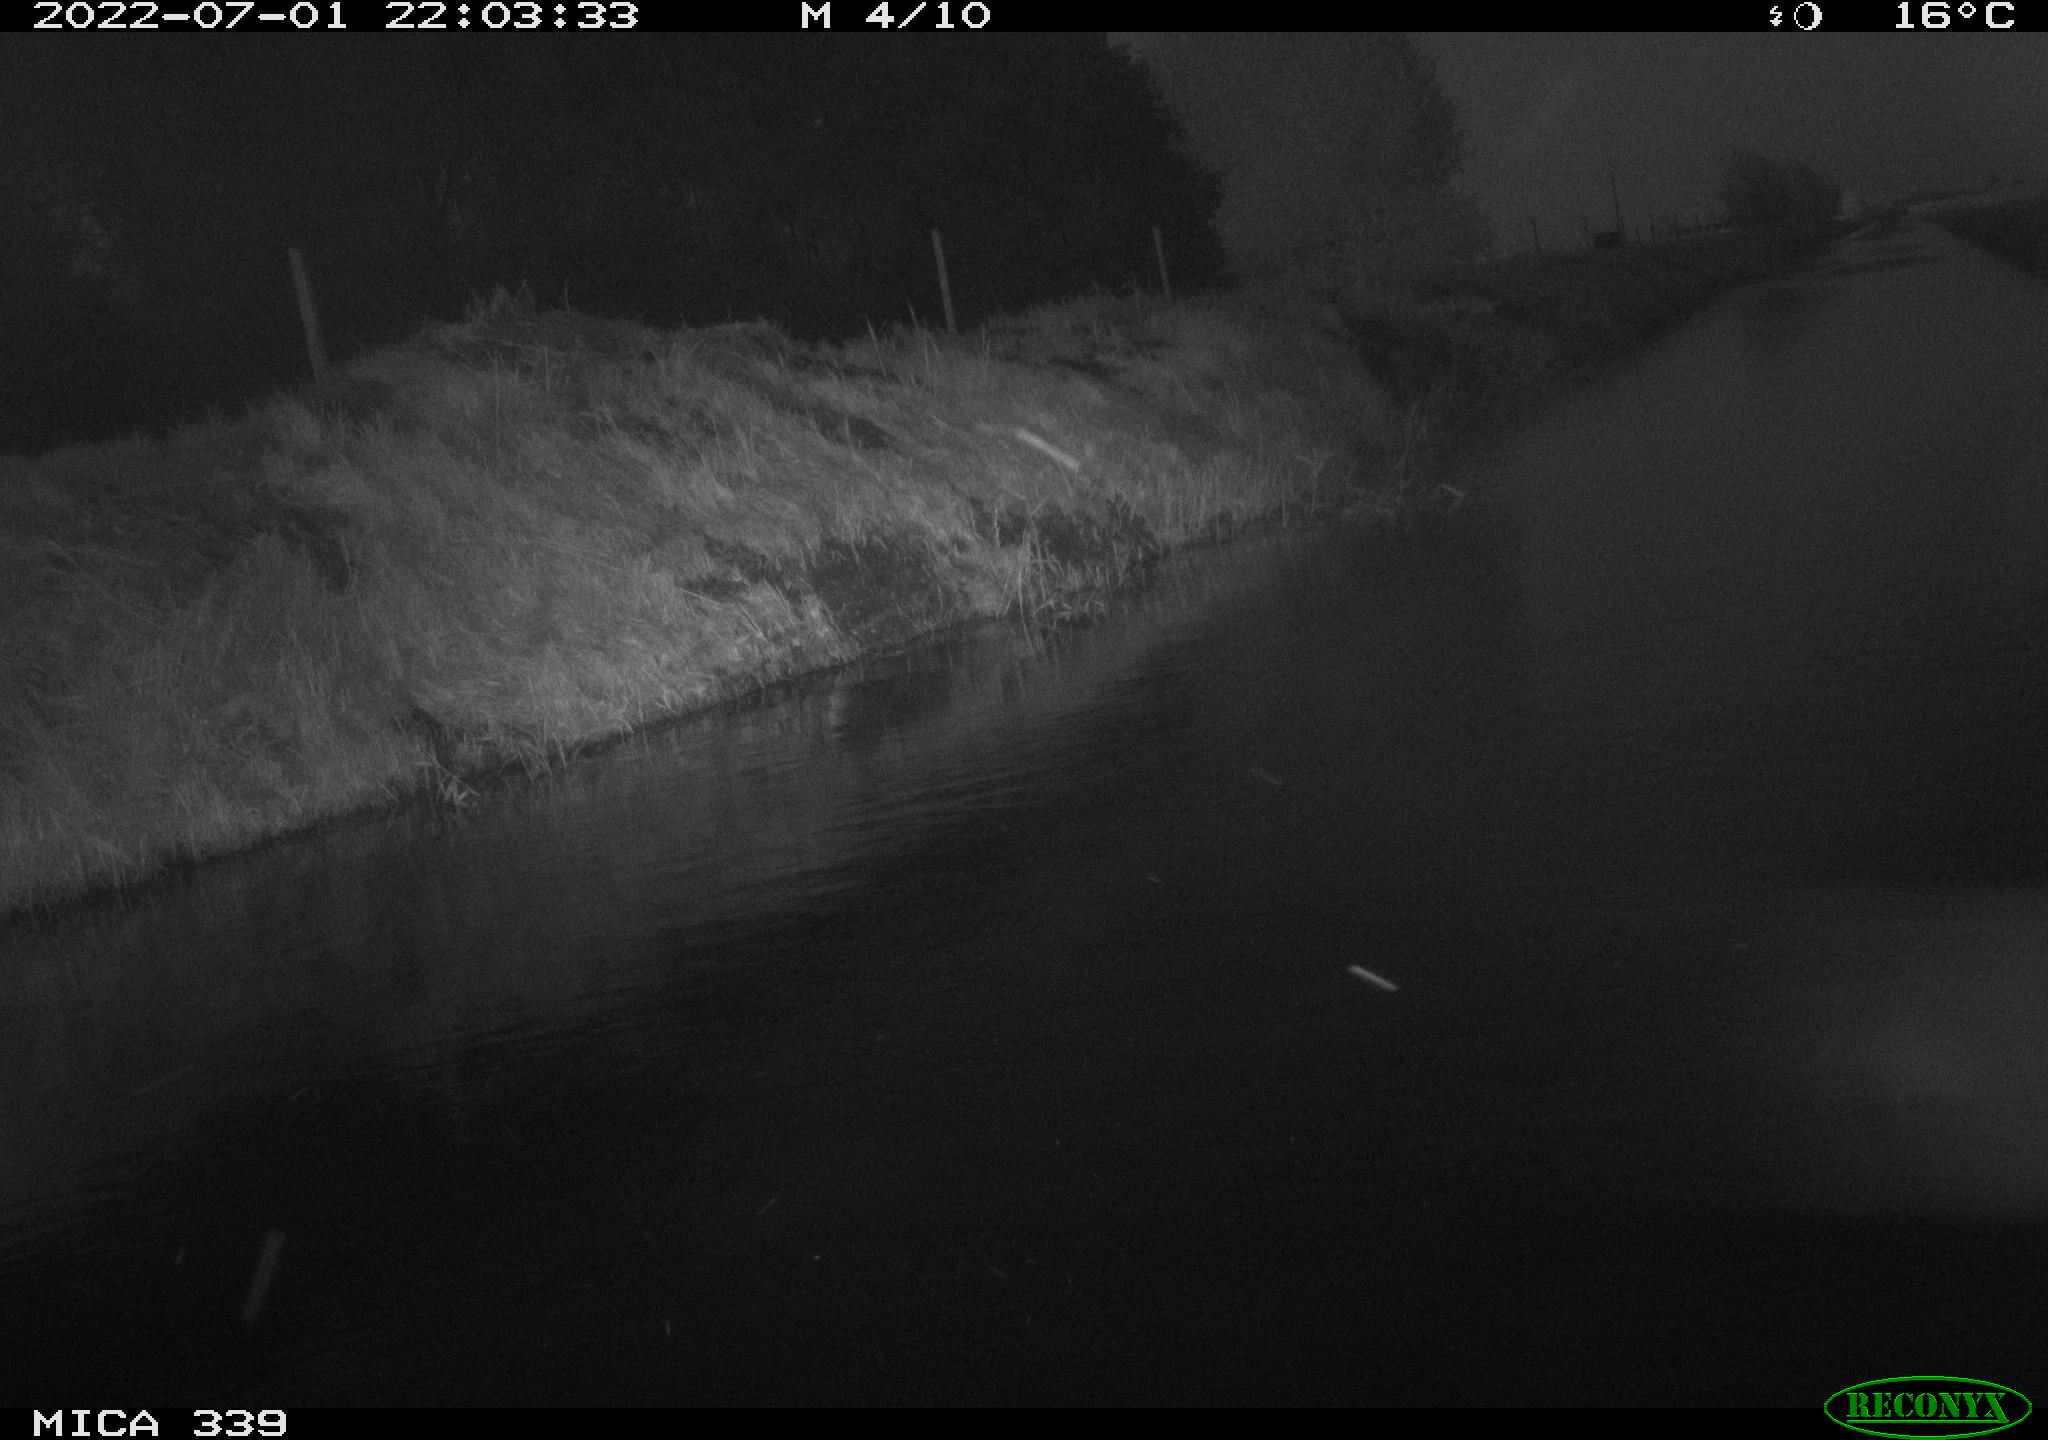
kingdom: Animalia
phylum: Chordata
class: Aves
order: Pelecaniformes
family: Ardeidae
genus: Ardea
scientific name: Ardea cinerea
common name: Grey heron
